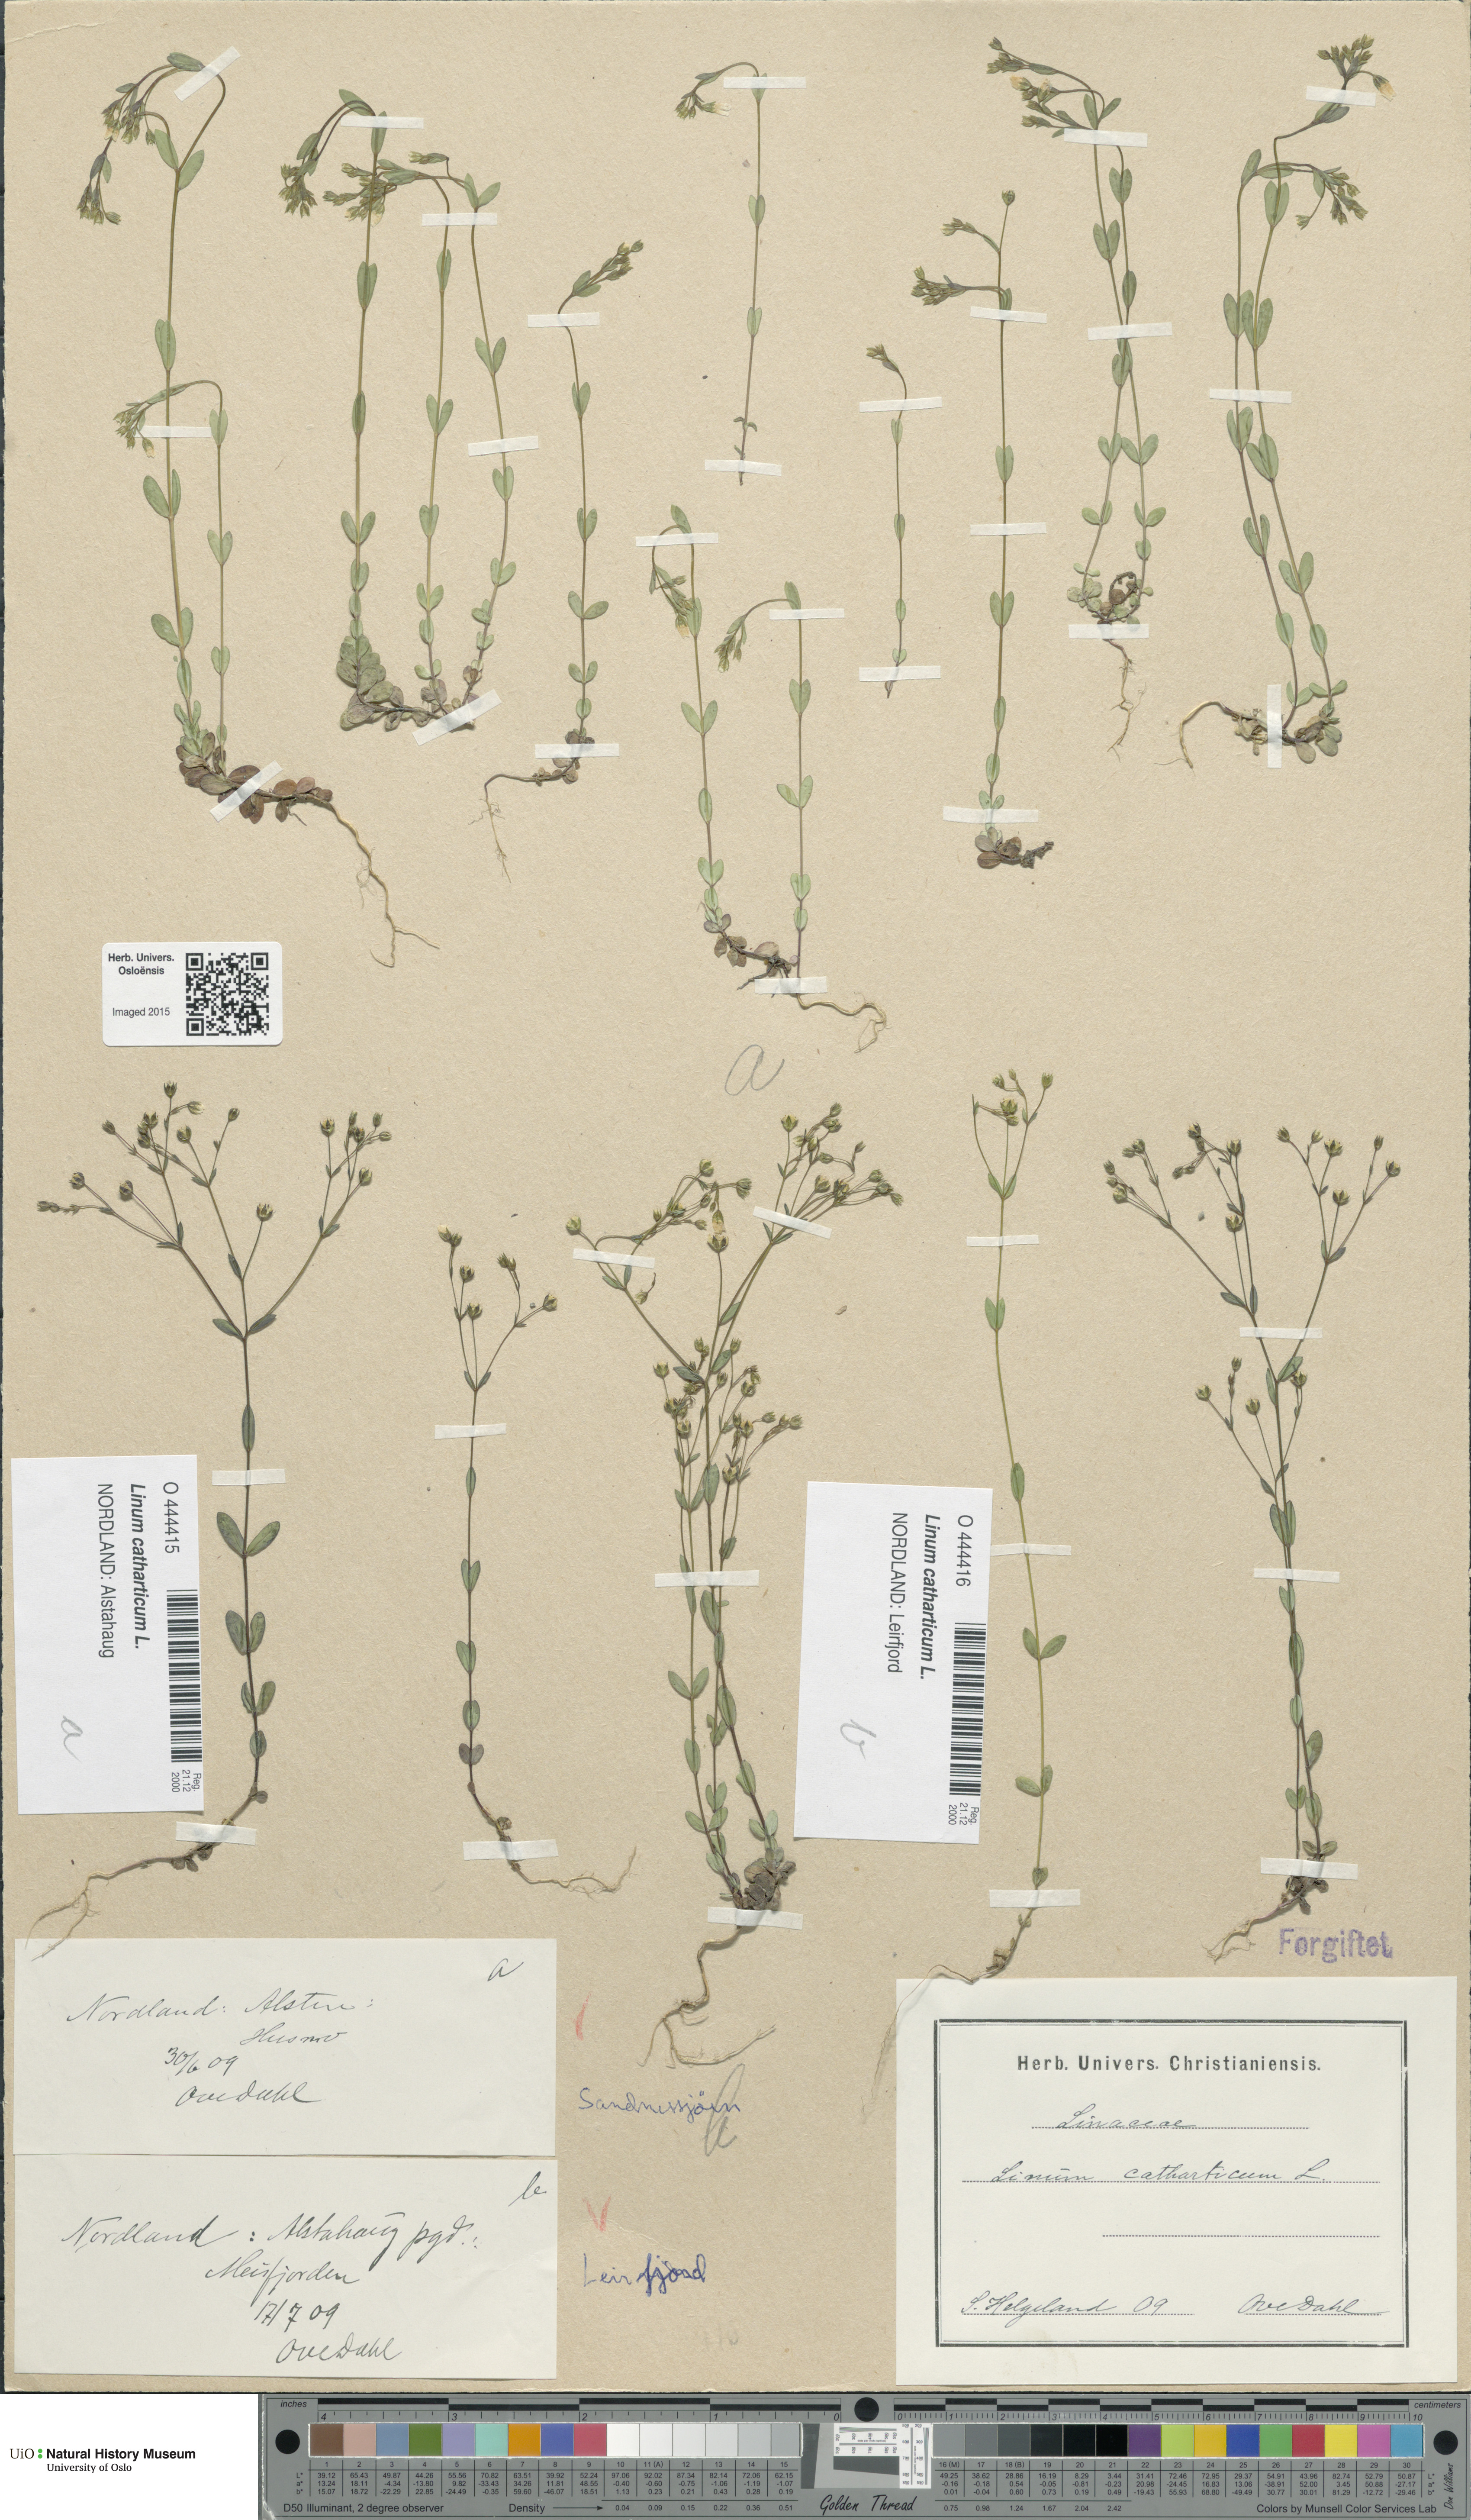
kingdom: Plantae
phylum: Tracheophyta
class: Magnoliopsida
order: Malpighiales
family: Linaceae
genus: Linum
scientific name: Linum catharticum
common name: Fairy flax
